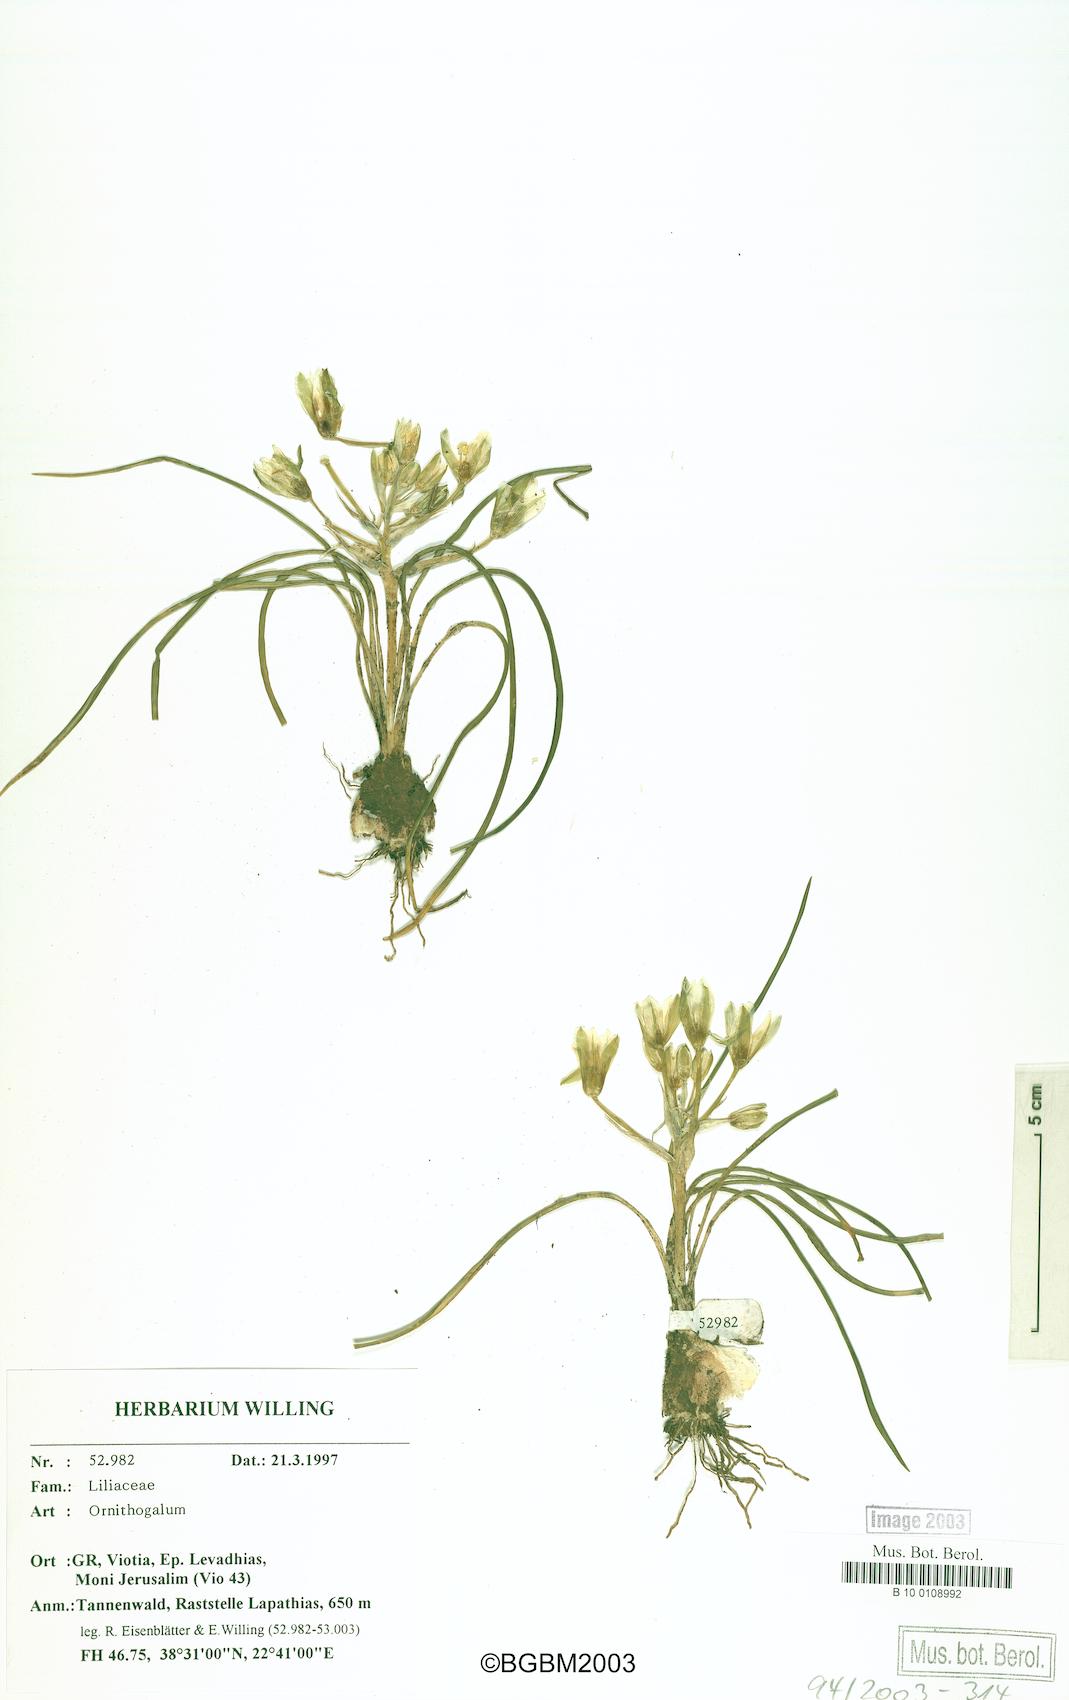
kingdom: Plantae
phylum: Tracheophyta
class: Liliopsida
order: Asparagales
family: Asparagaceae
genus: Ornithogalum
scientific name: Ornithogalum
